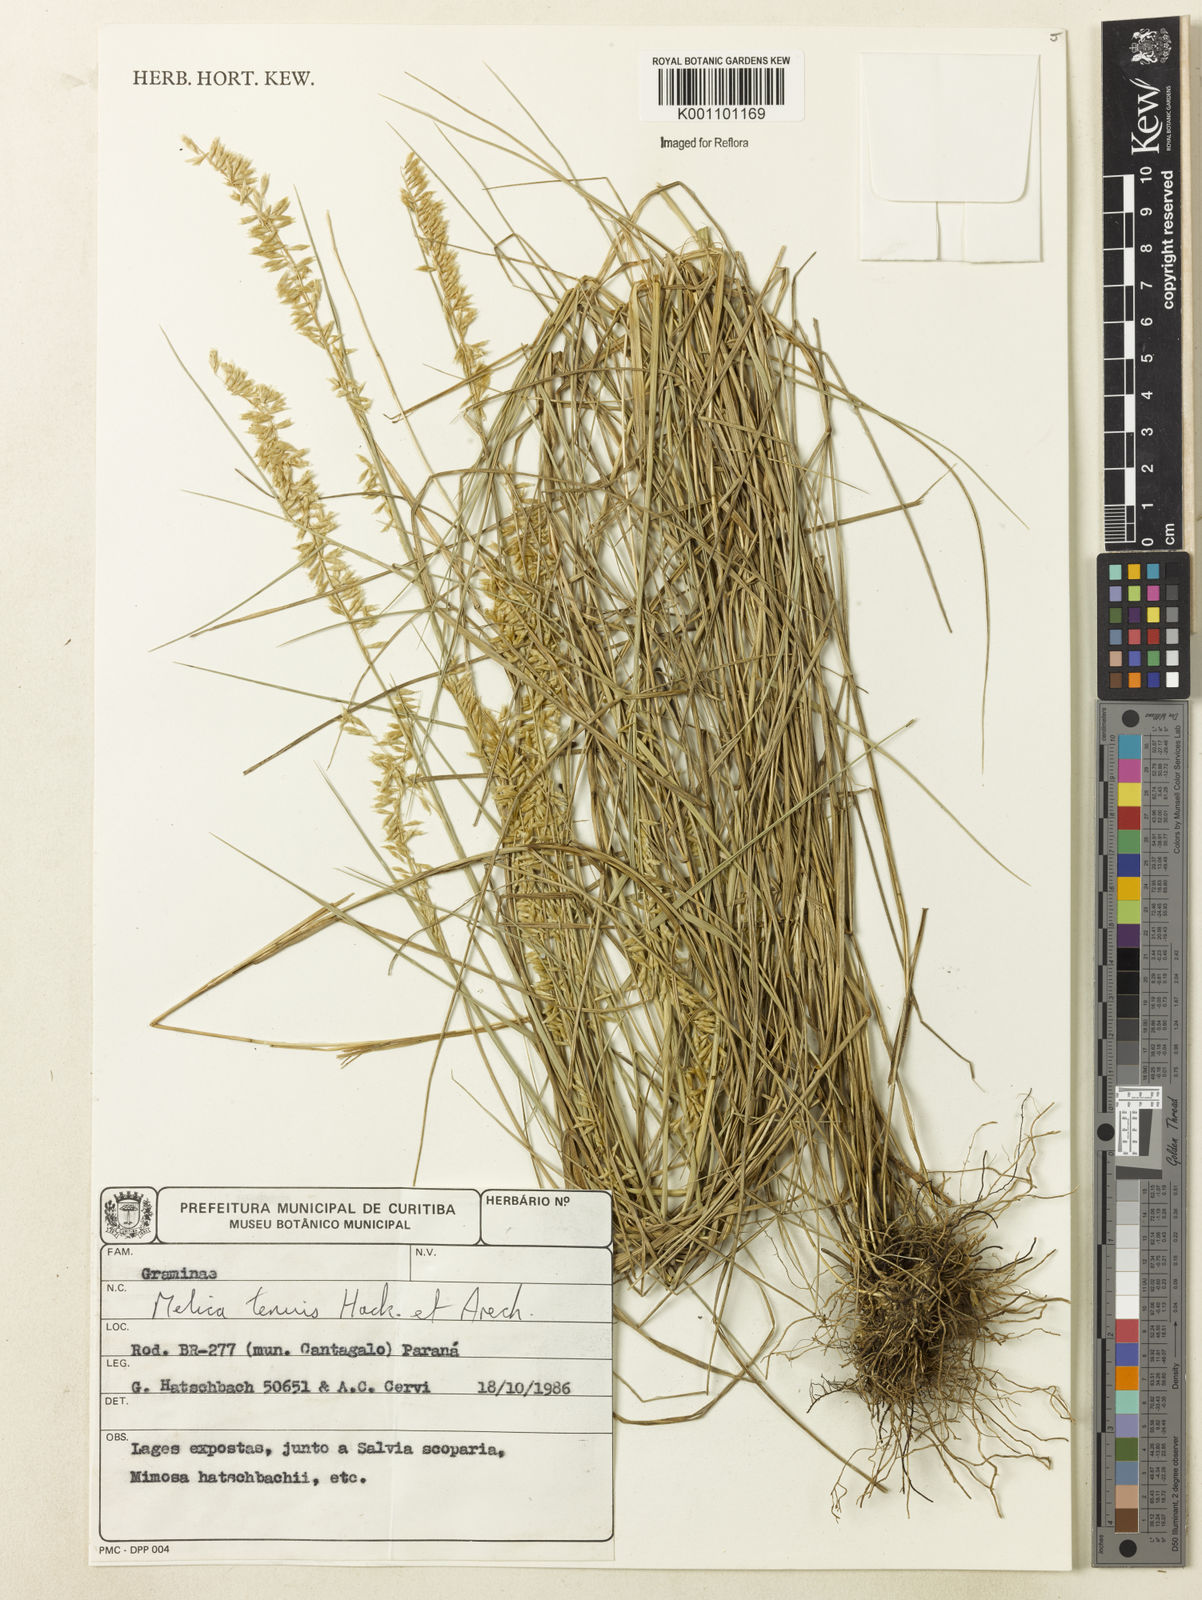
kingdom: Plantae
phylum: Tracheophyta
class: Liliopsida
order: Poales
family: Poaceae
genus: Melica
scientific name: Melica tenuis
